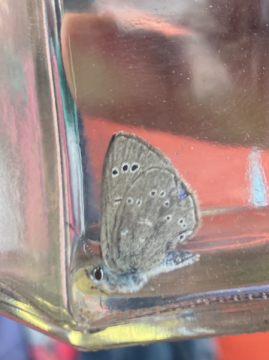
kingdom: Animalia
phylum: Arthropoda
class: Insecta
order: Lepidoptera
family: Lycaenidae
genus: Glaucopsyche
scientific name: Glaucopsyche lygdamus
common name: Silvery Blue
